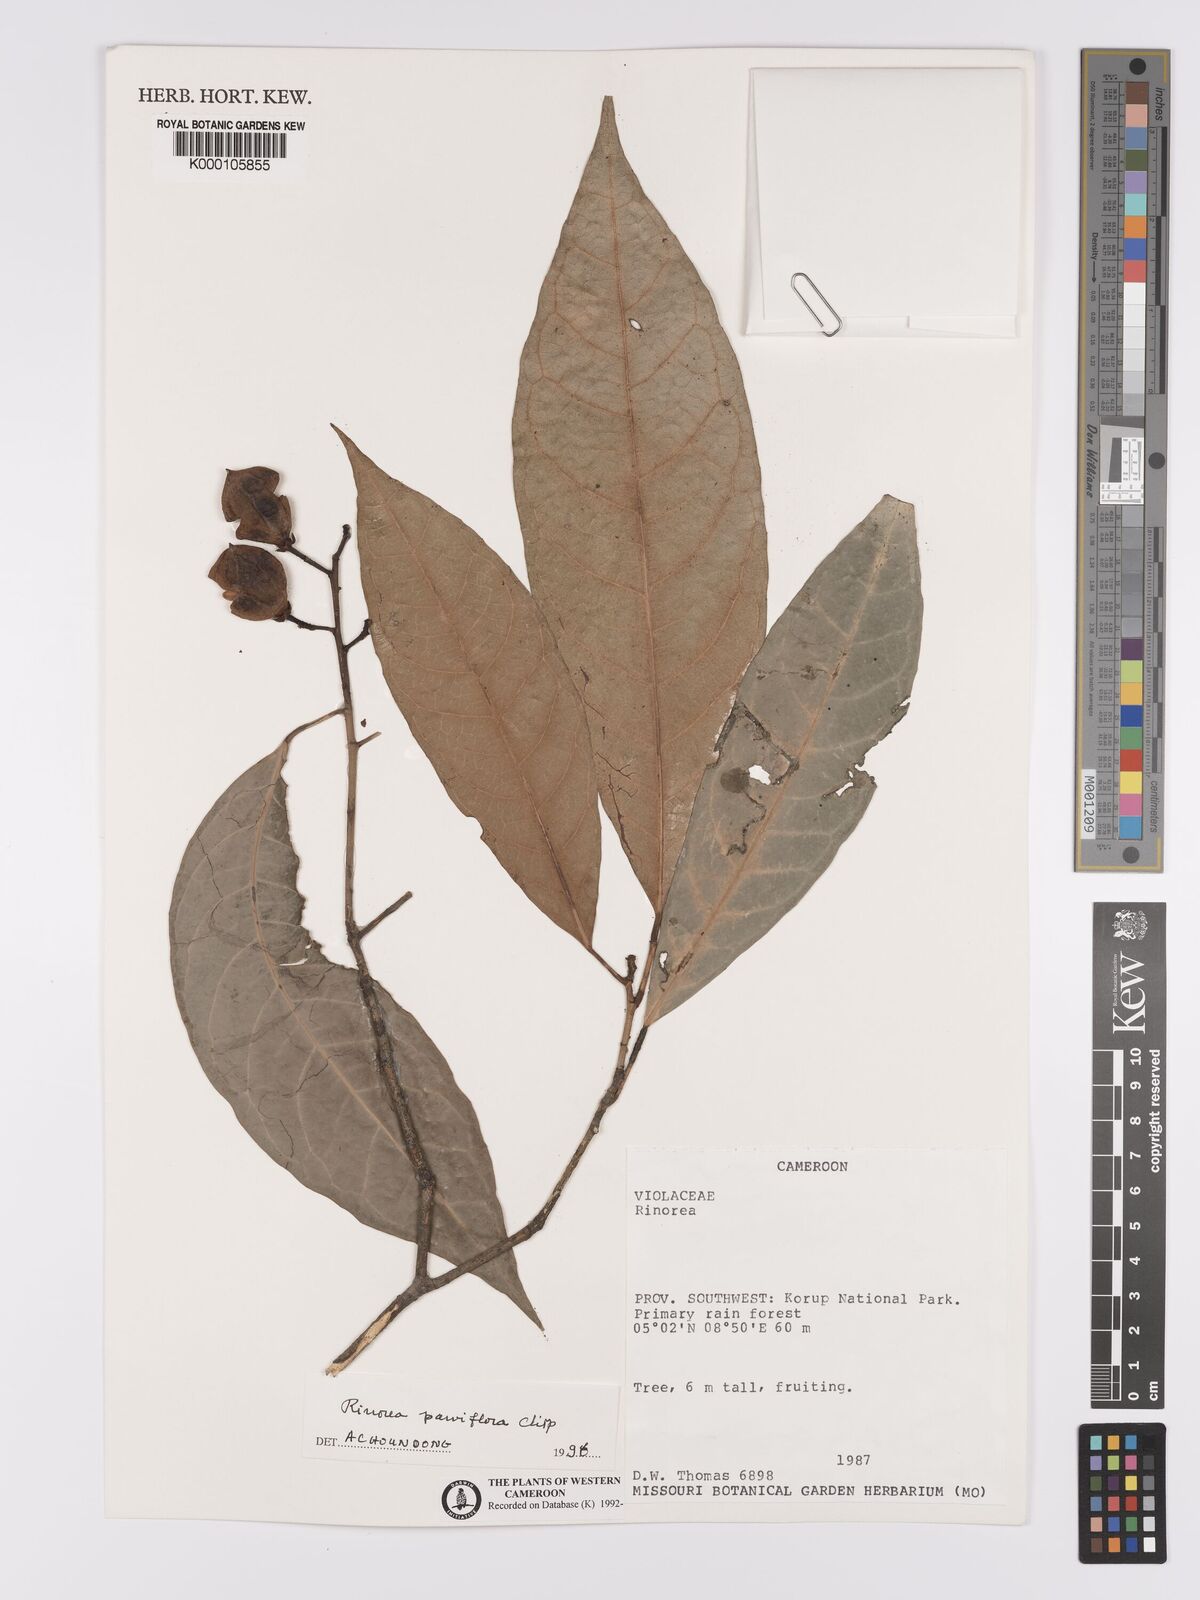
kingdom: Plantae
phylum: Tracheophyta
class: Magnoliopsida
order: Malpighiales
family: Violaceae
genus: Rinorea
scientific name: Rinorea parviflora
